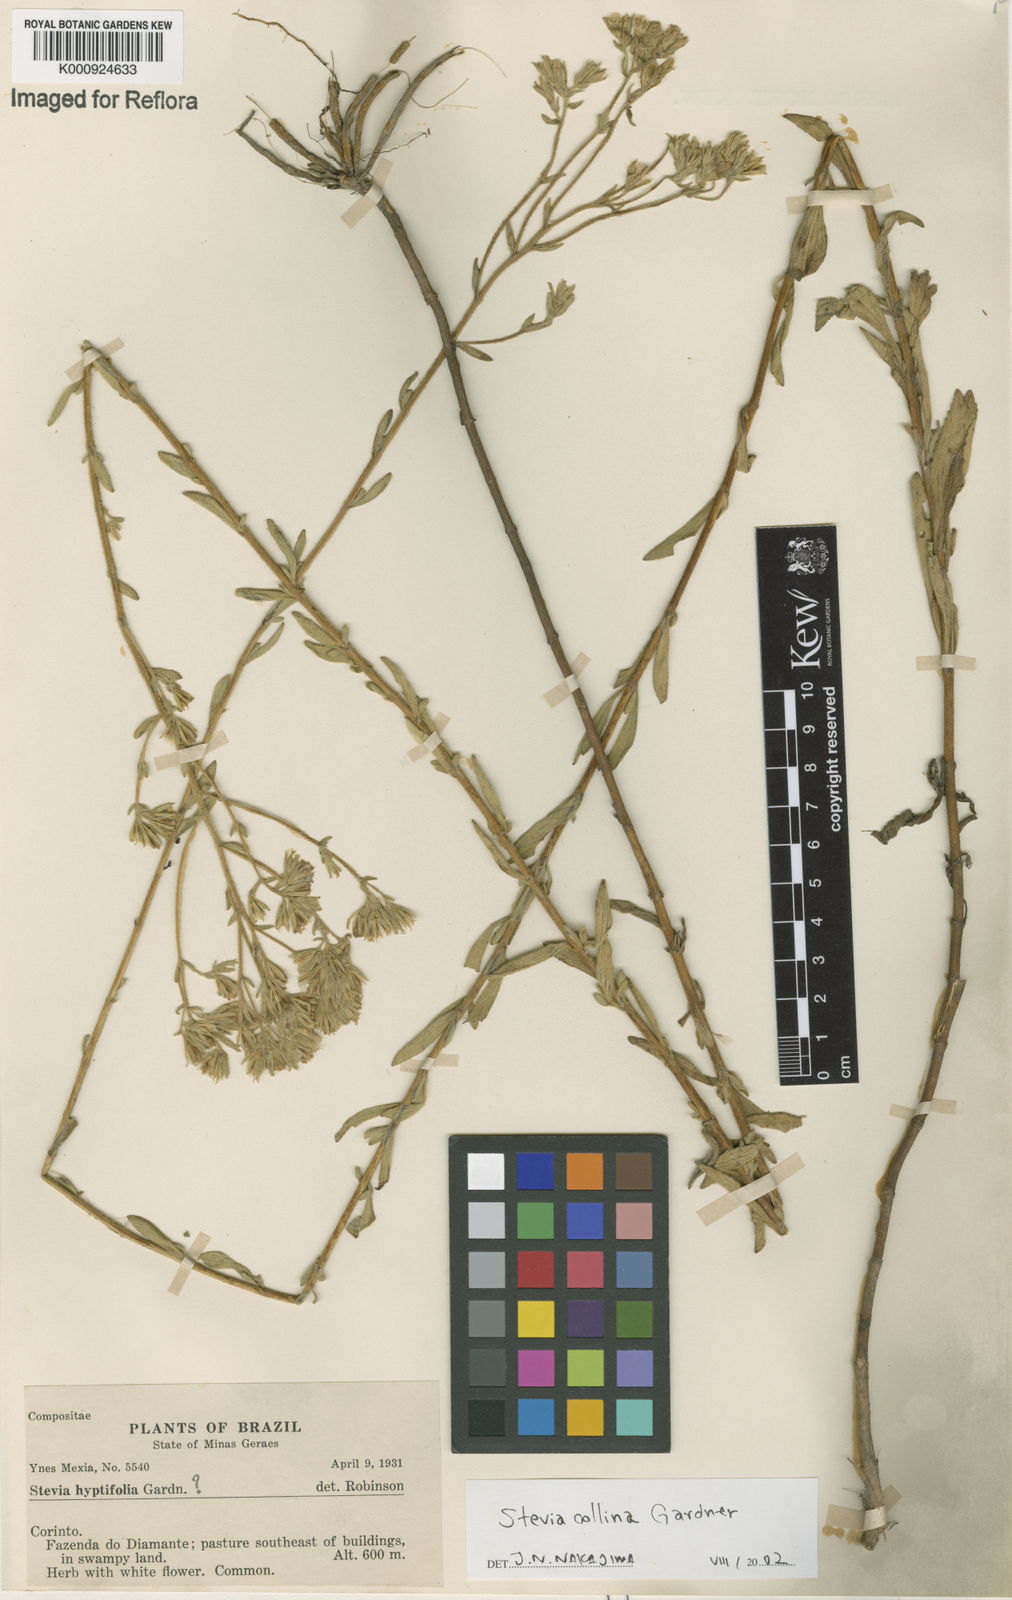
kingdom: Plantae
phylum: Tracheophyta
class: Magnoliopsida
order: Asterales
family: Asteraceae
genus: Stevia
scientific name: Stevia collina
